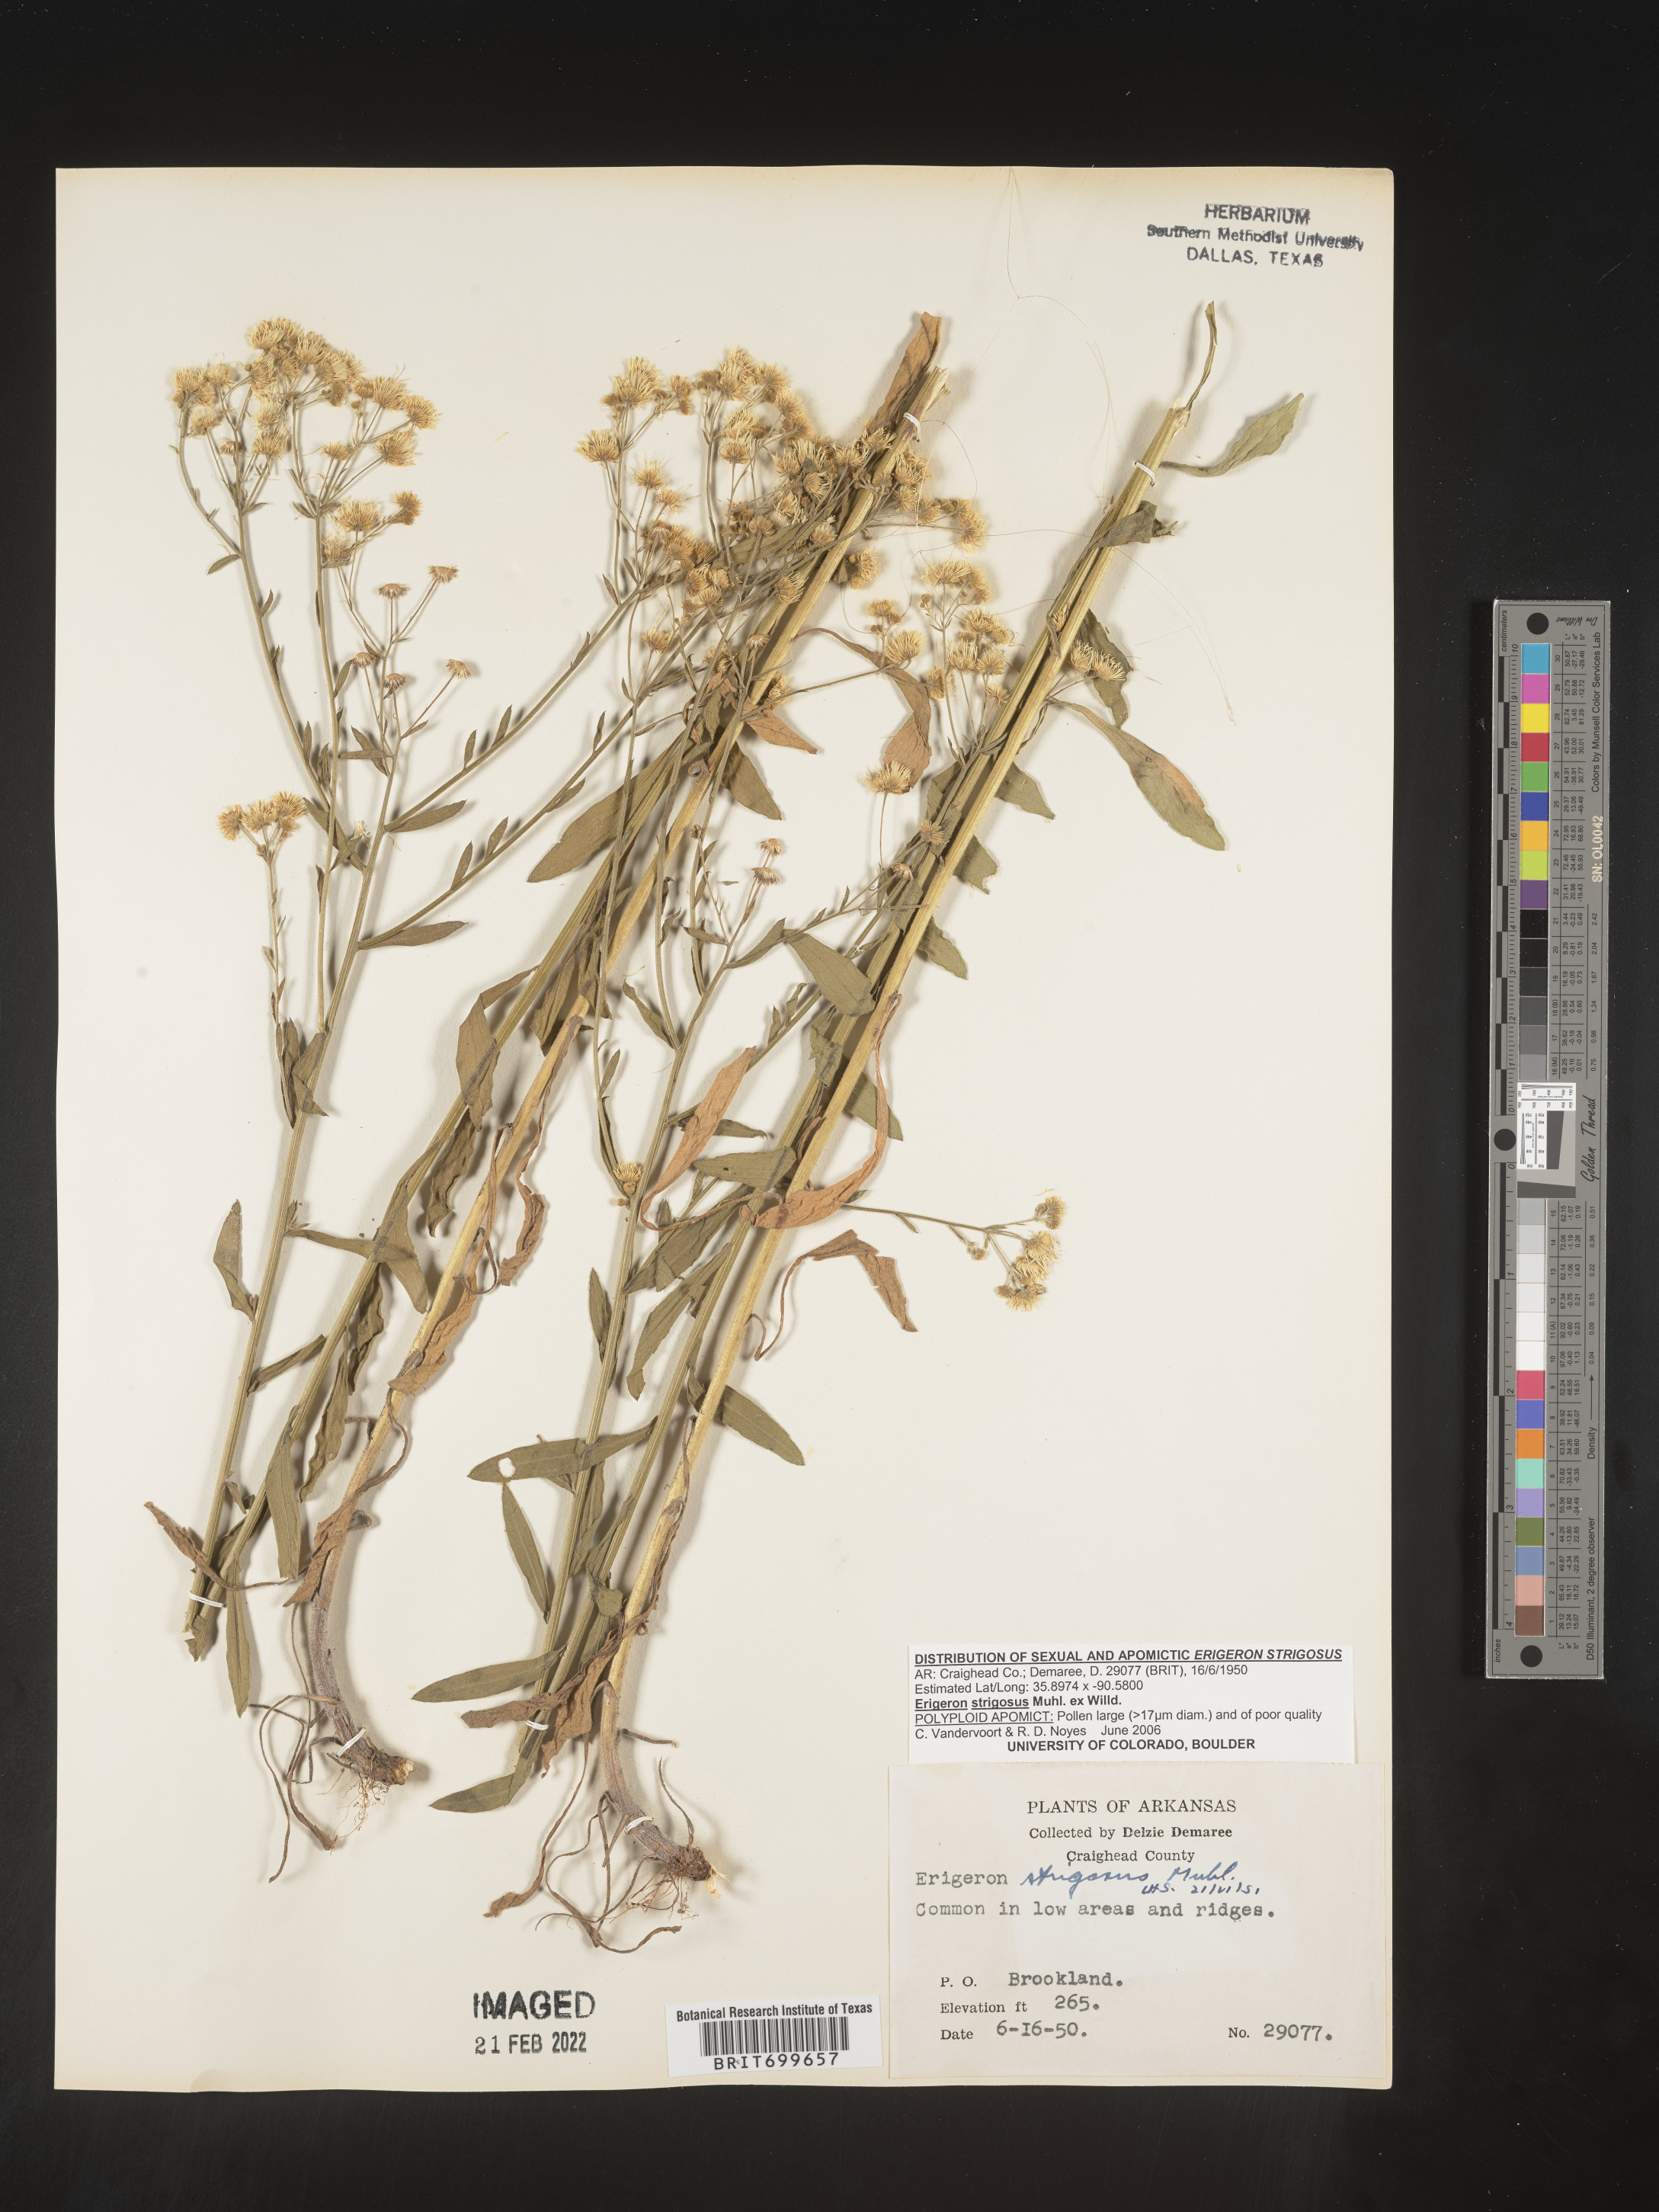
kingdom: Plantae
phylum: Tracheophyta
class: Magnoliopsida
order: Asterales
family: Asteraceae
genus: Erigeron
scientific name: Erigeron strigosus
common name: Common eastern fleabane
